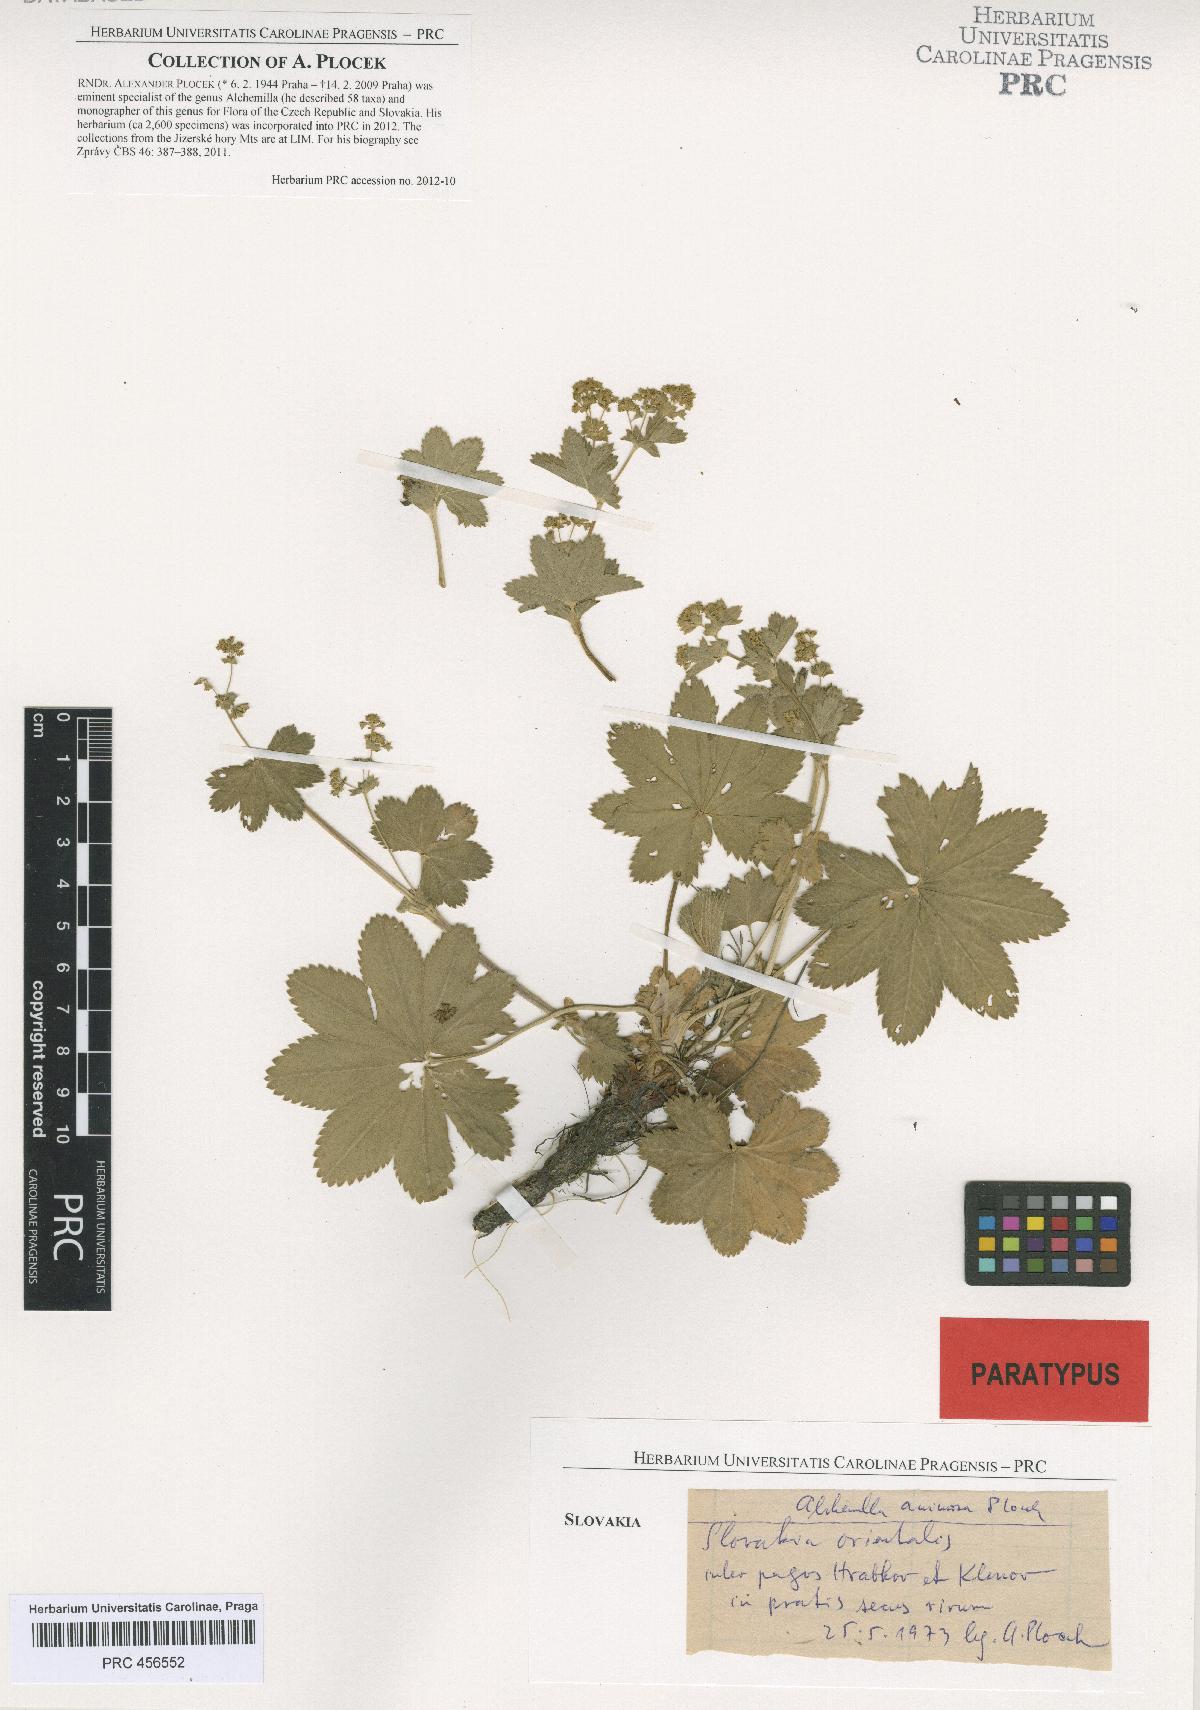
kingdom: Plantae
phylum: Tracheophyta
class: Magnoliopsida
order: Rosales
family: Rosaceae
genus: Alchemilla
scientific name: Alchemilla animosa
